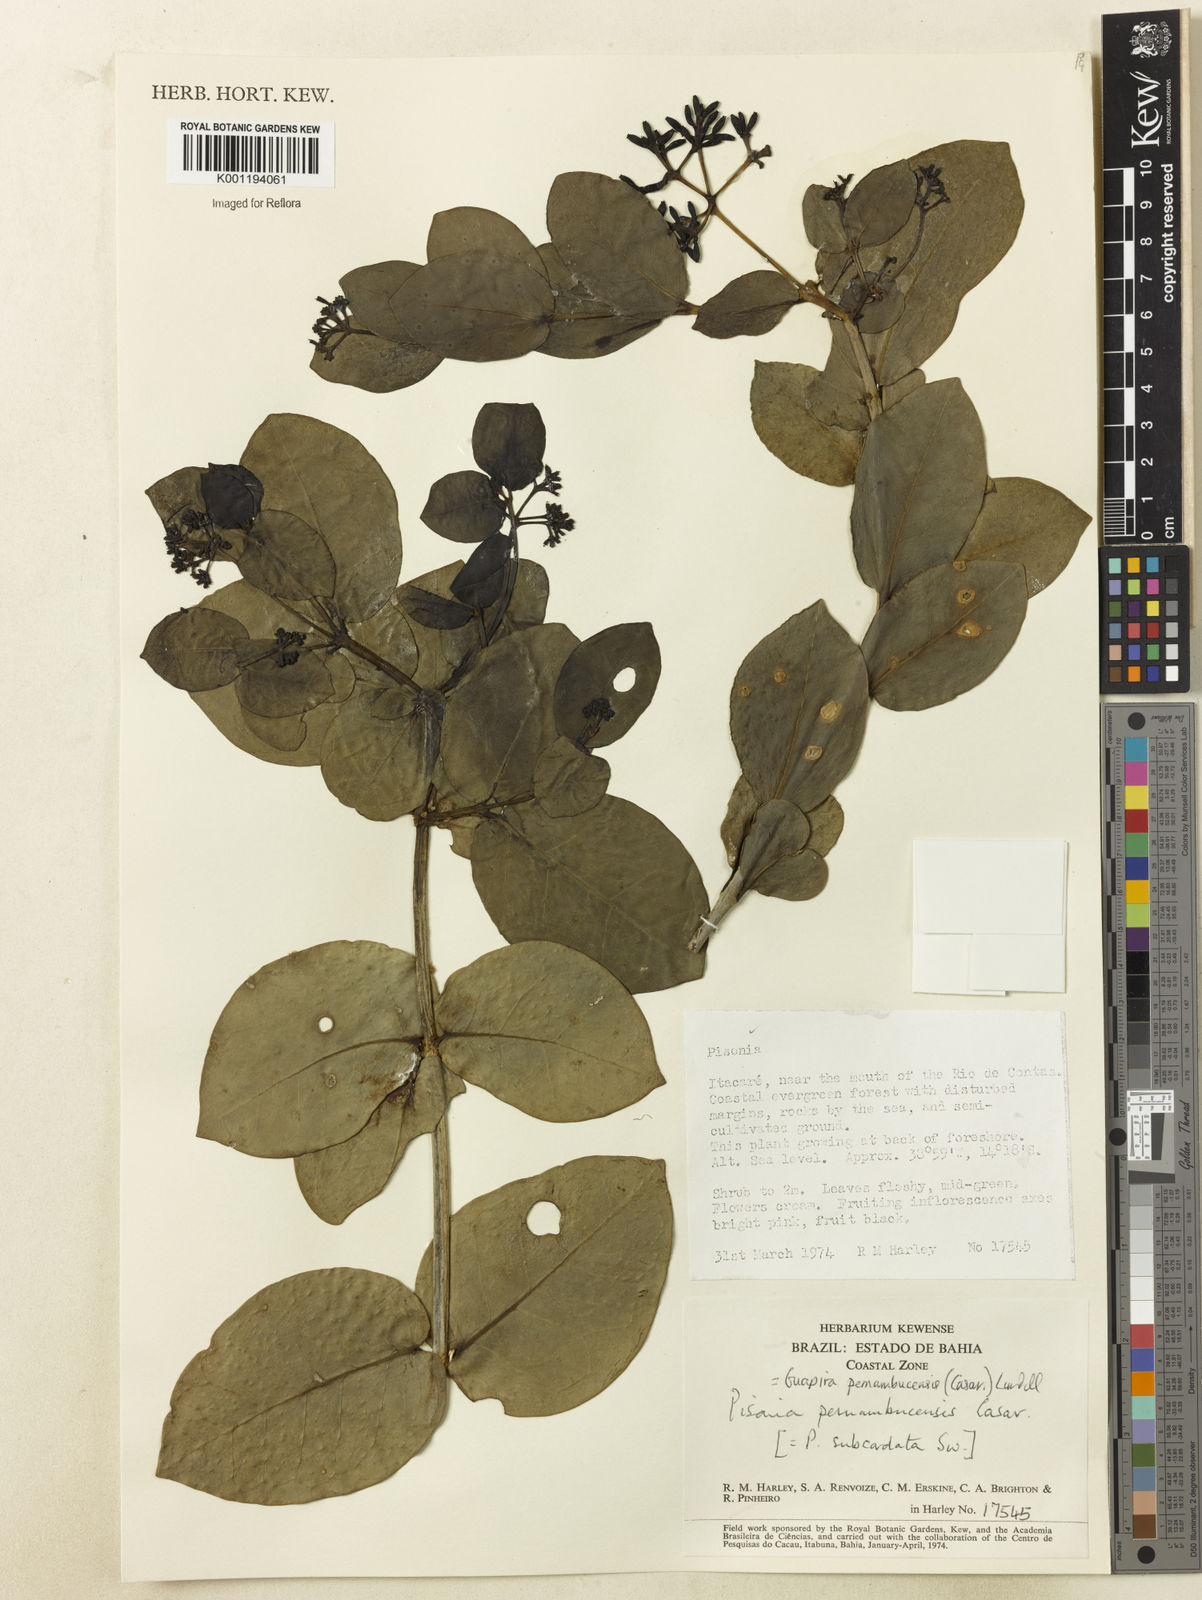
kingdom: Plantae
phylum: Tracheophyta
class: Magnoliopsida
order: Caryophyllales
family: Nyctaginaceae
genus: Guapira
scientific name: Guapira pernambucensis
